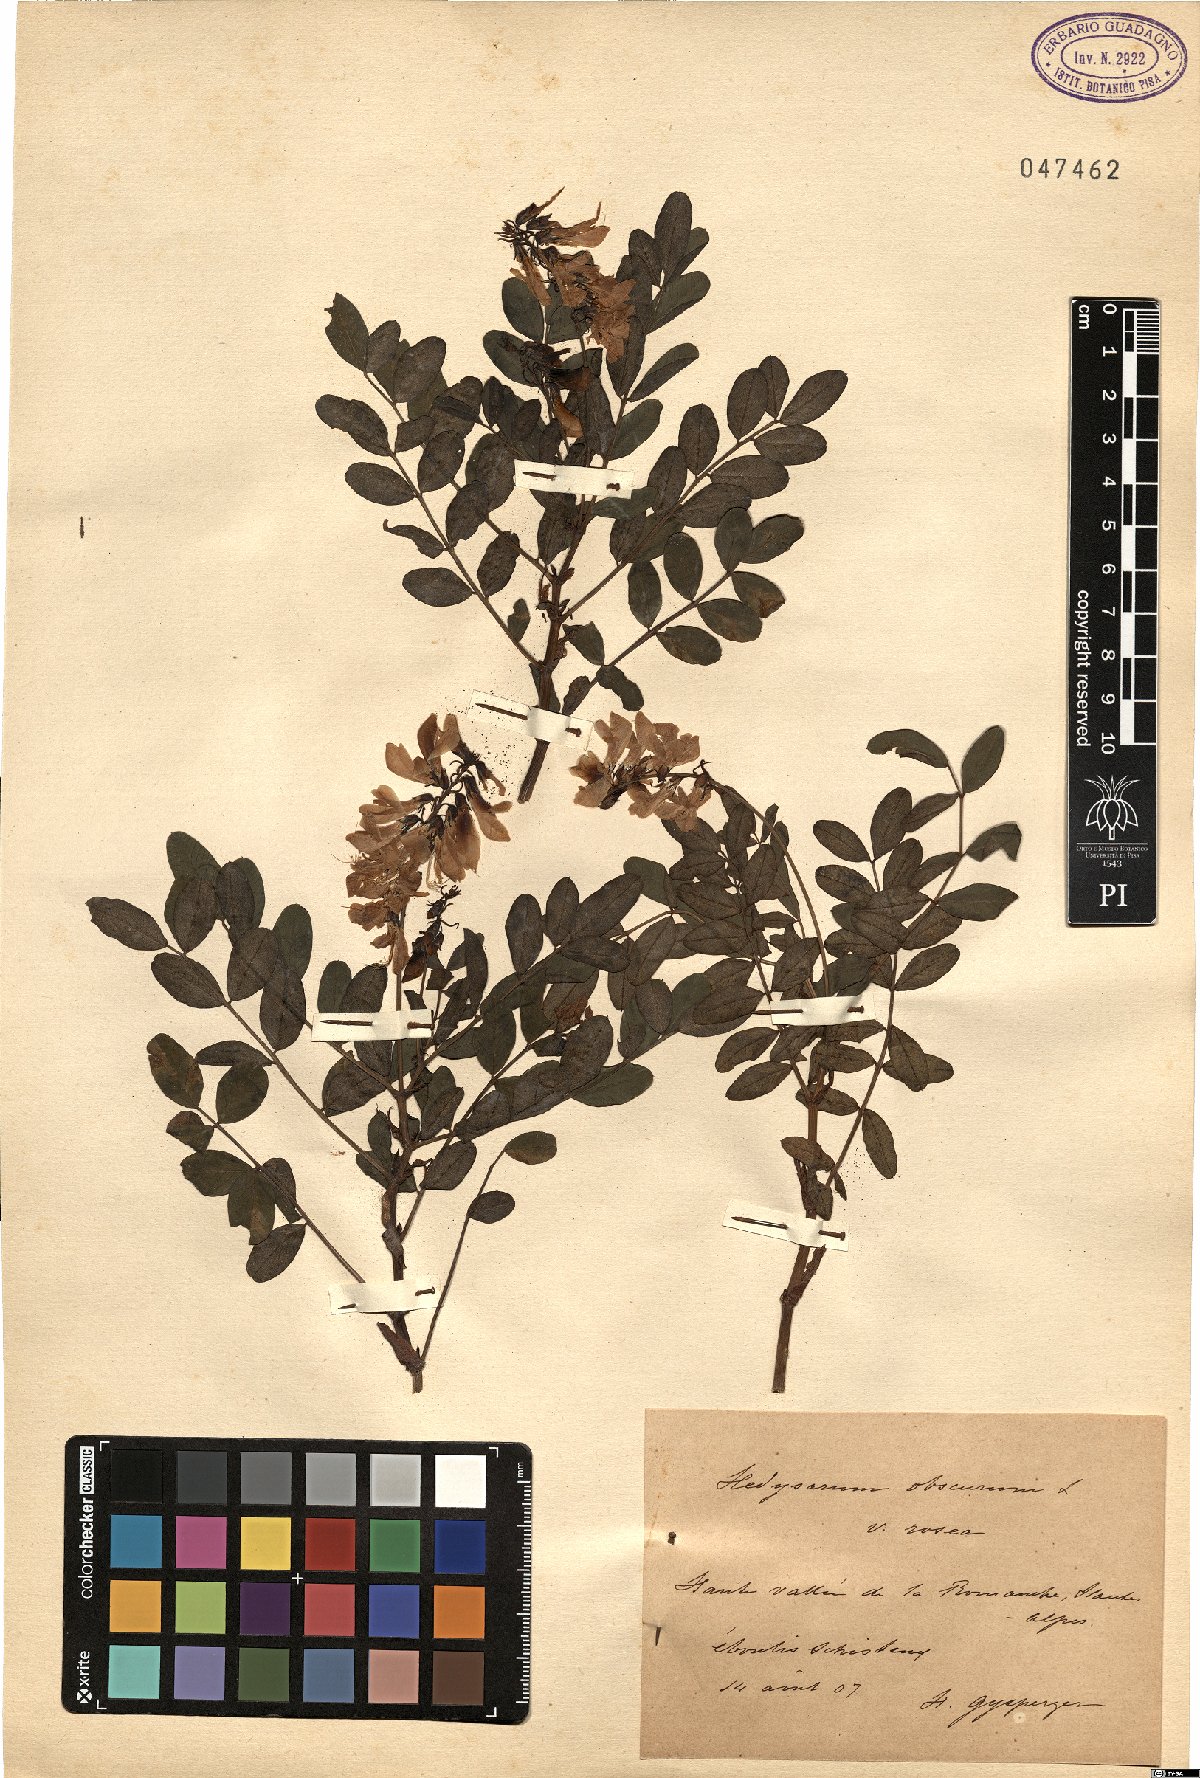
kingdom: Plantae
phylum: Tracheophyta
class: Magnoliopsida
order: Fabales
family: Fabaceae
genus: Hedysarum
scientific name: Hedysarum hedysaroides
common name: Alpine french-honeysuckle
